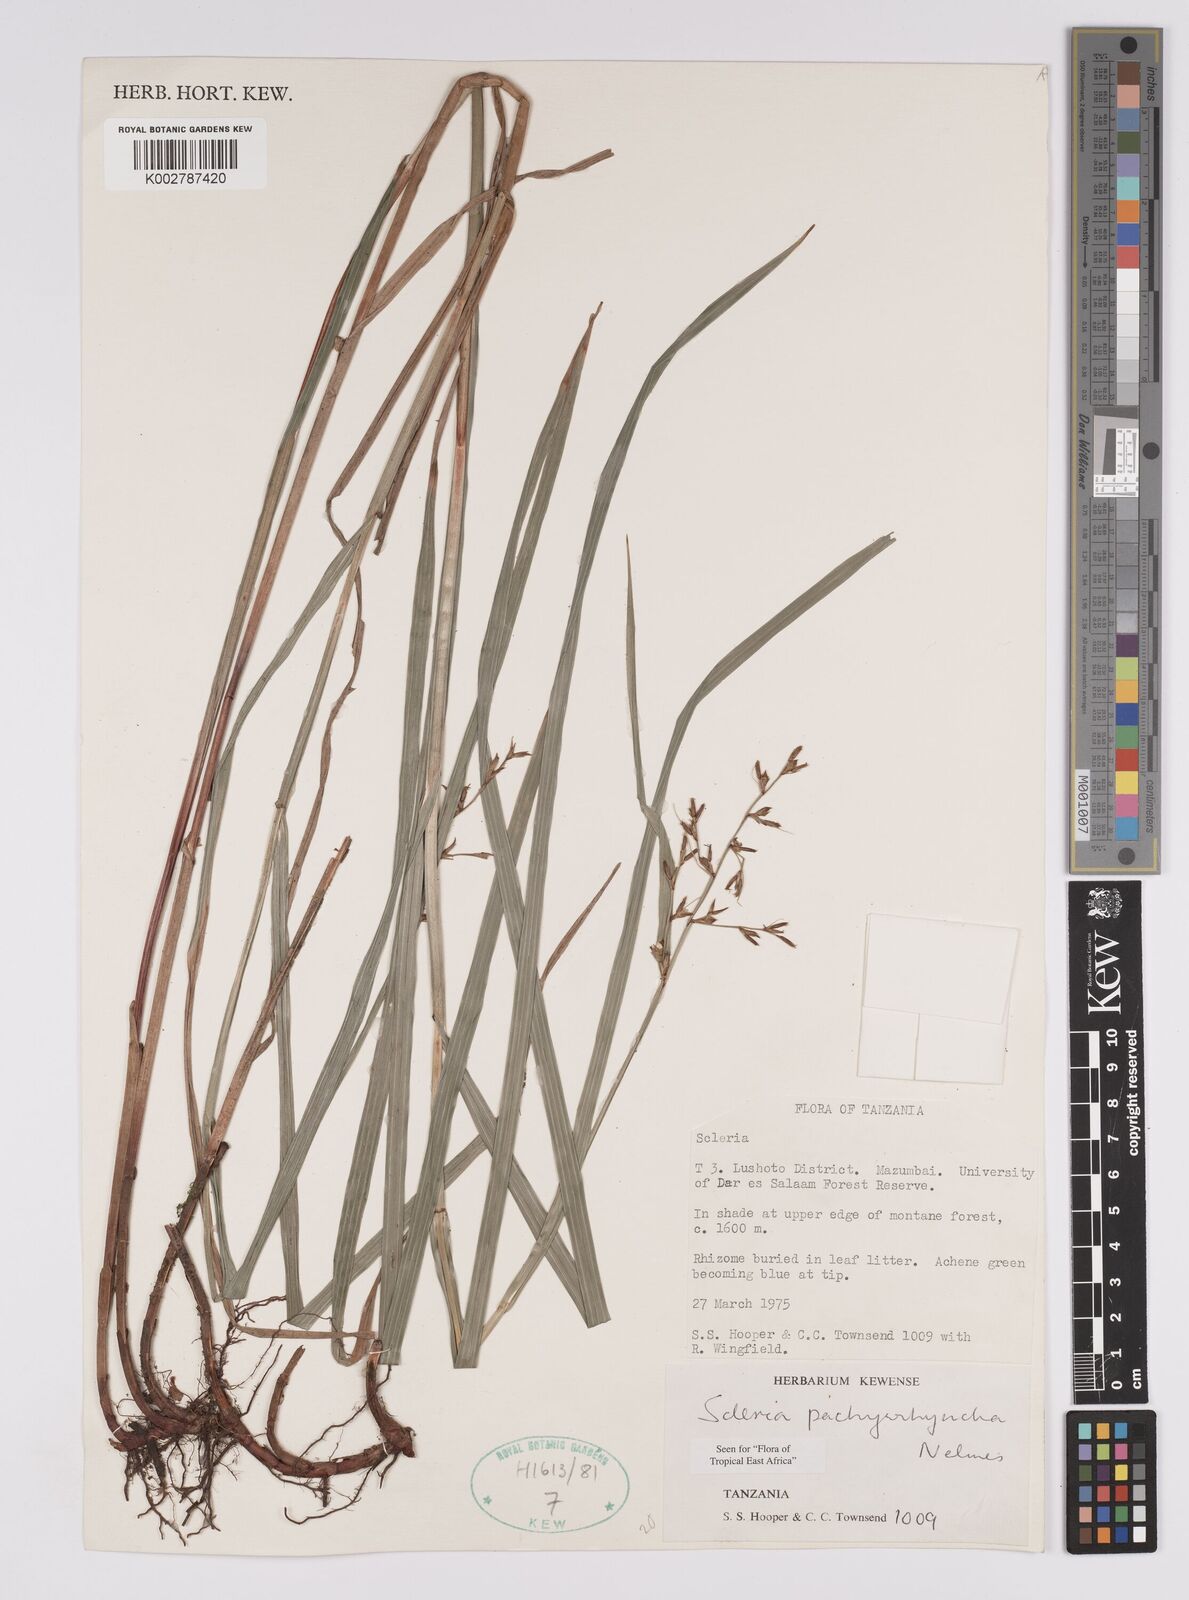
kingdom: Plantae
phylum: Tracheophyta
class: Liliopsida
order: Poales
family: Cyperaceae
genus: Scleria
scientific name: Scleria pachyrrhyncha
